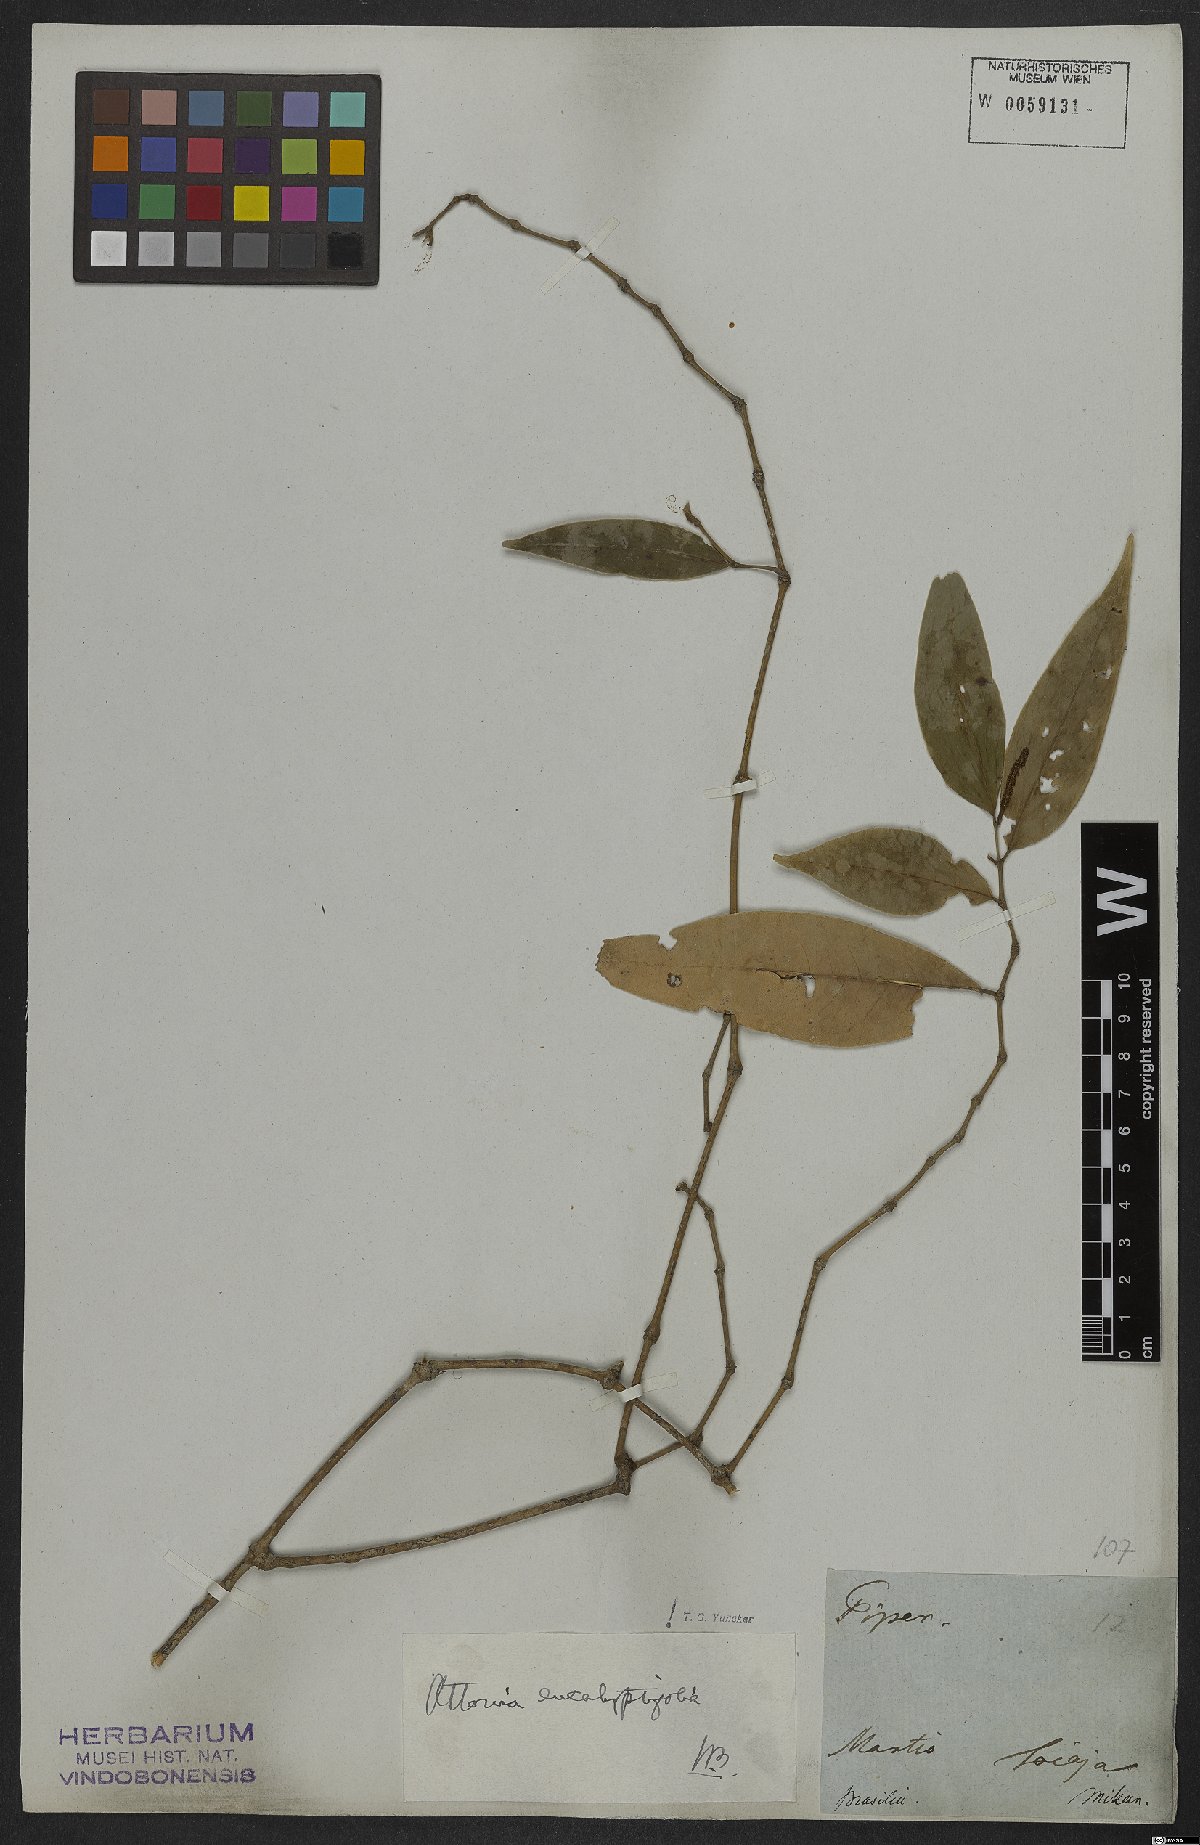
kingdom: Plantae
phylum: Tracheophyta
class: Magnoliopsida
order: Piperales
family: Piperaceae
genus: Piper
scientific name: Piper eucalyptolimbum
